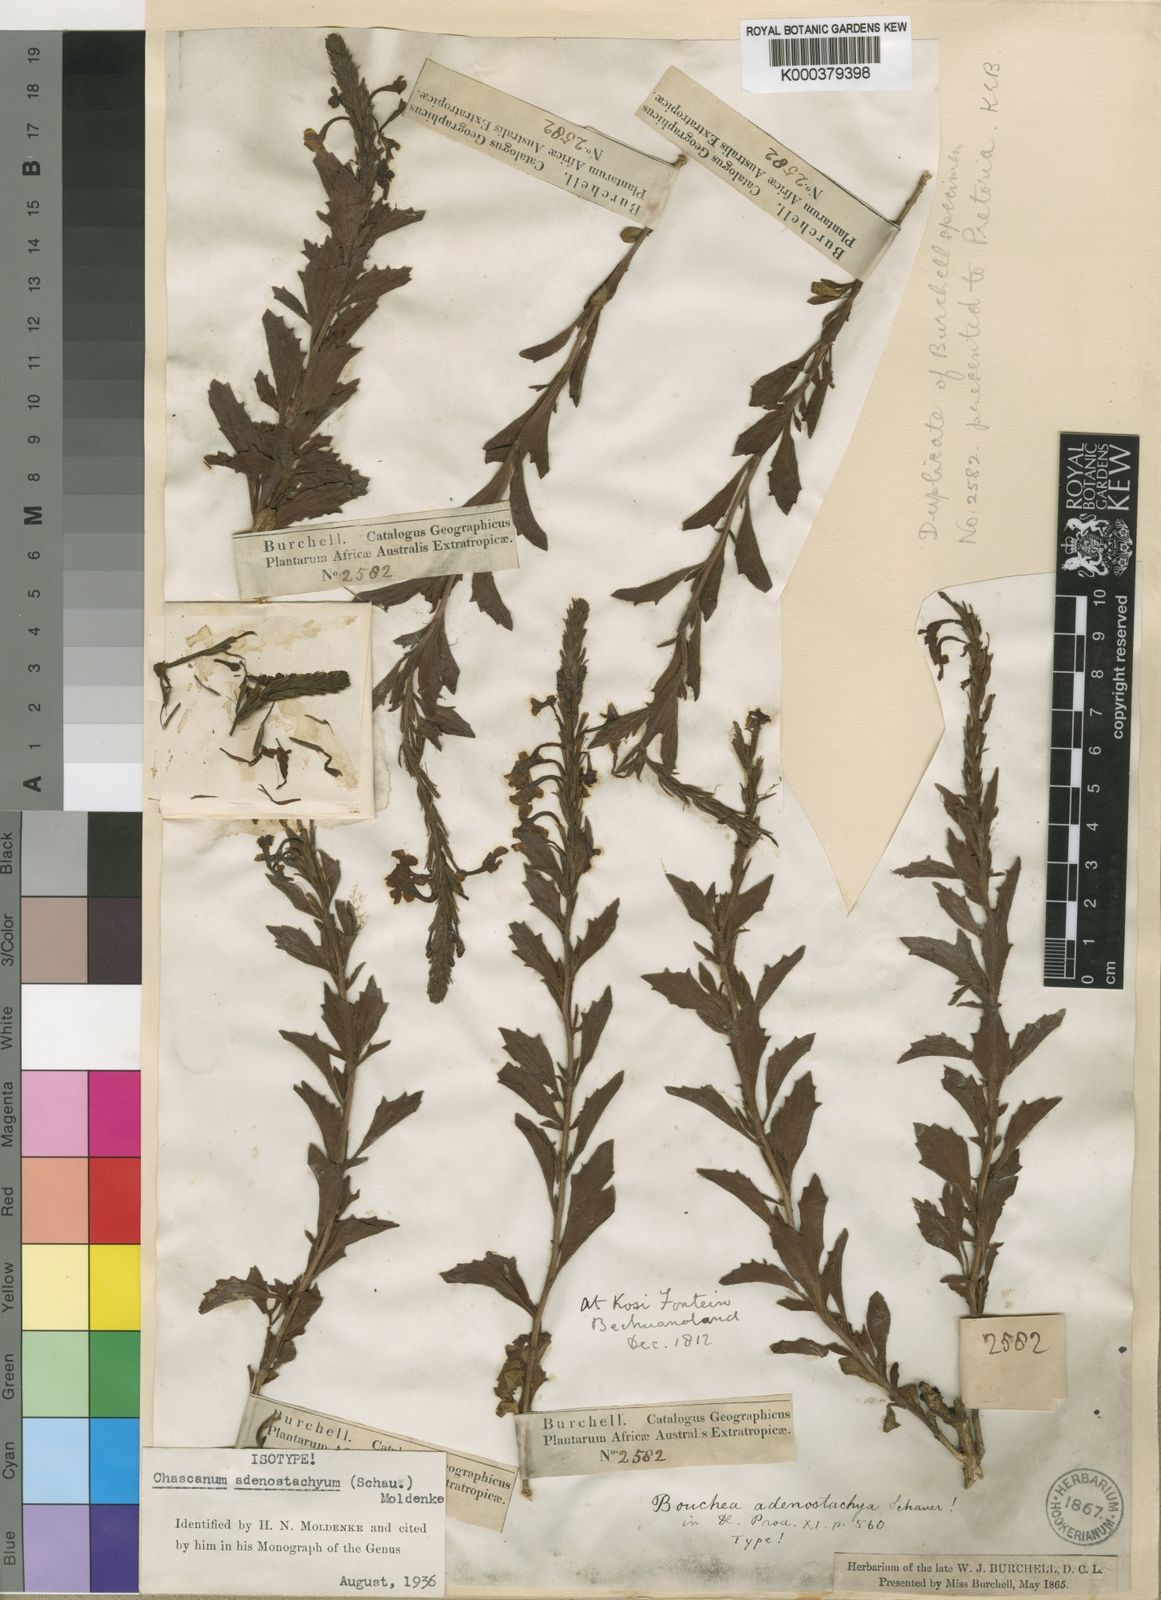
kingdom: Plantae
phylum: Tracheophyta
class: Magnoliopsida
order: Lamiales
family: Verbenaceae
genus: Chascanum
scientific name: Chascanum adenostachyum
